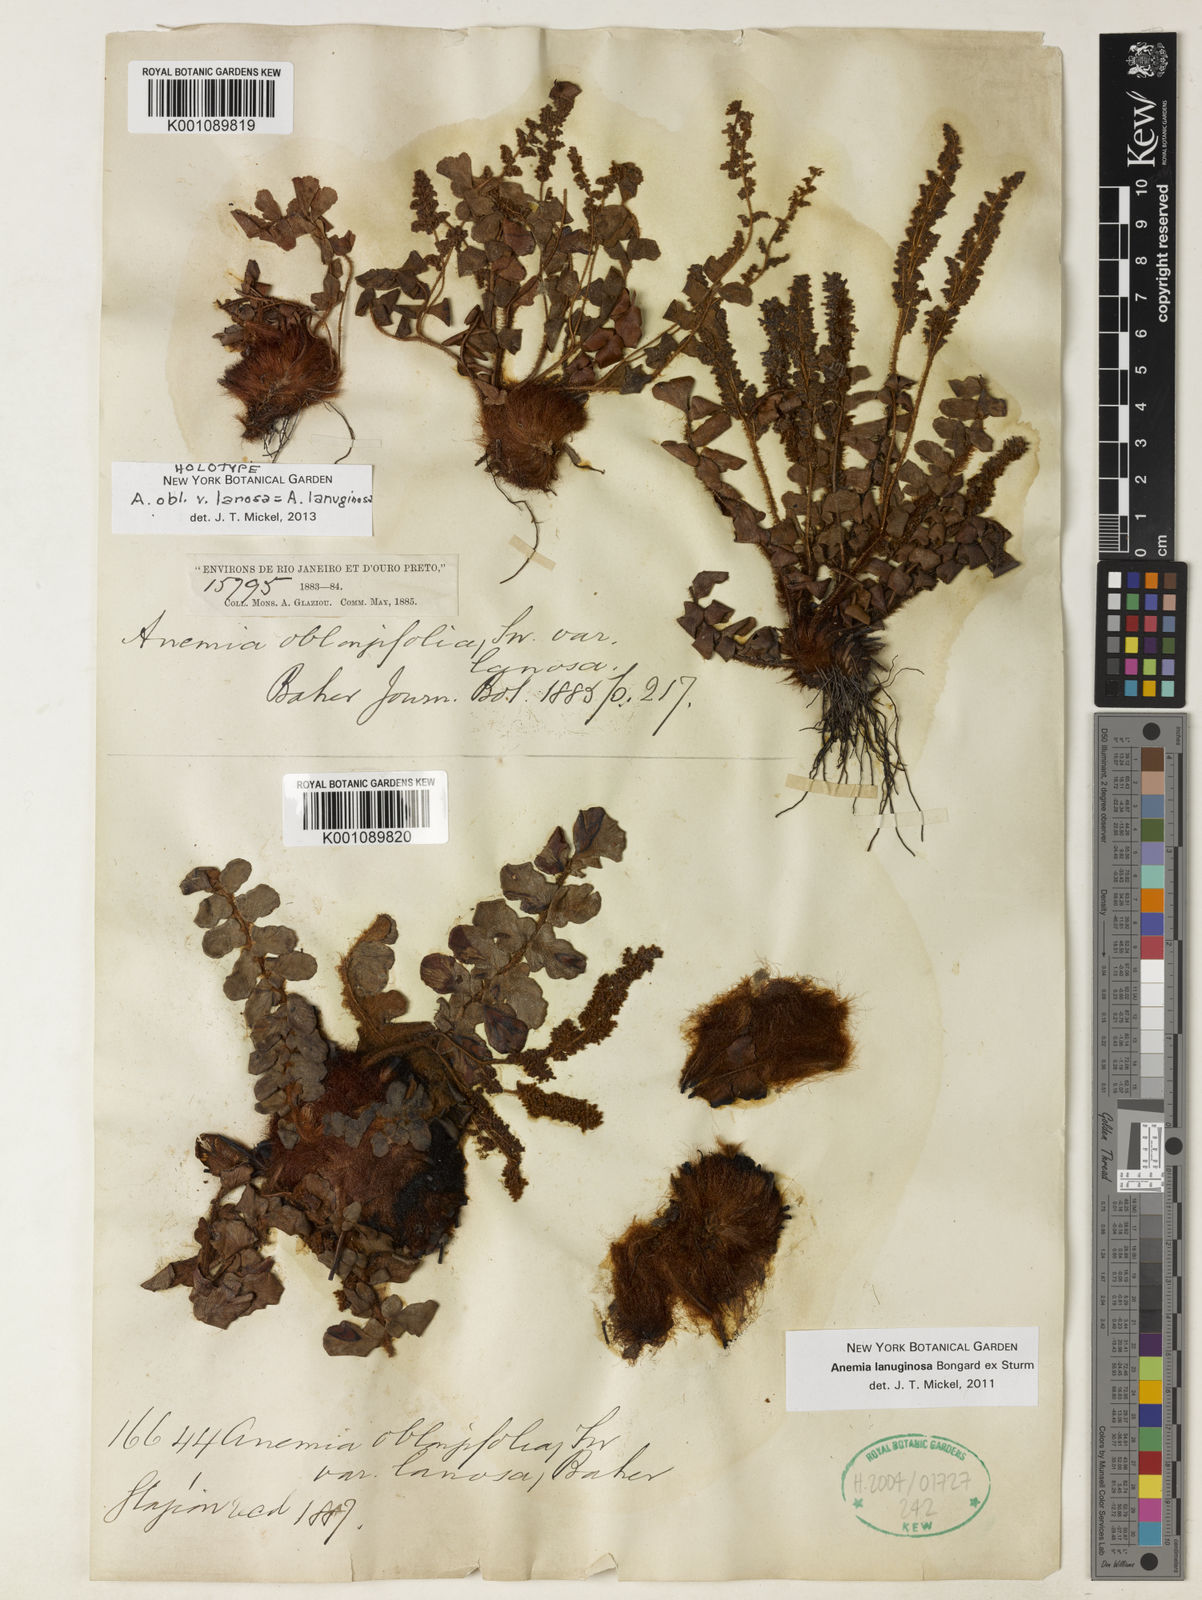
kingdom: Plantae
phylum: Tracheophyta
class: Polypodiopsida
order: Schizaeales
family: Anemiaceae
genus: Anemia
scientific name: Anemia lanuginosa
